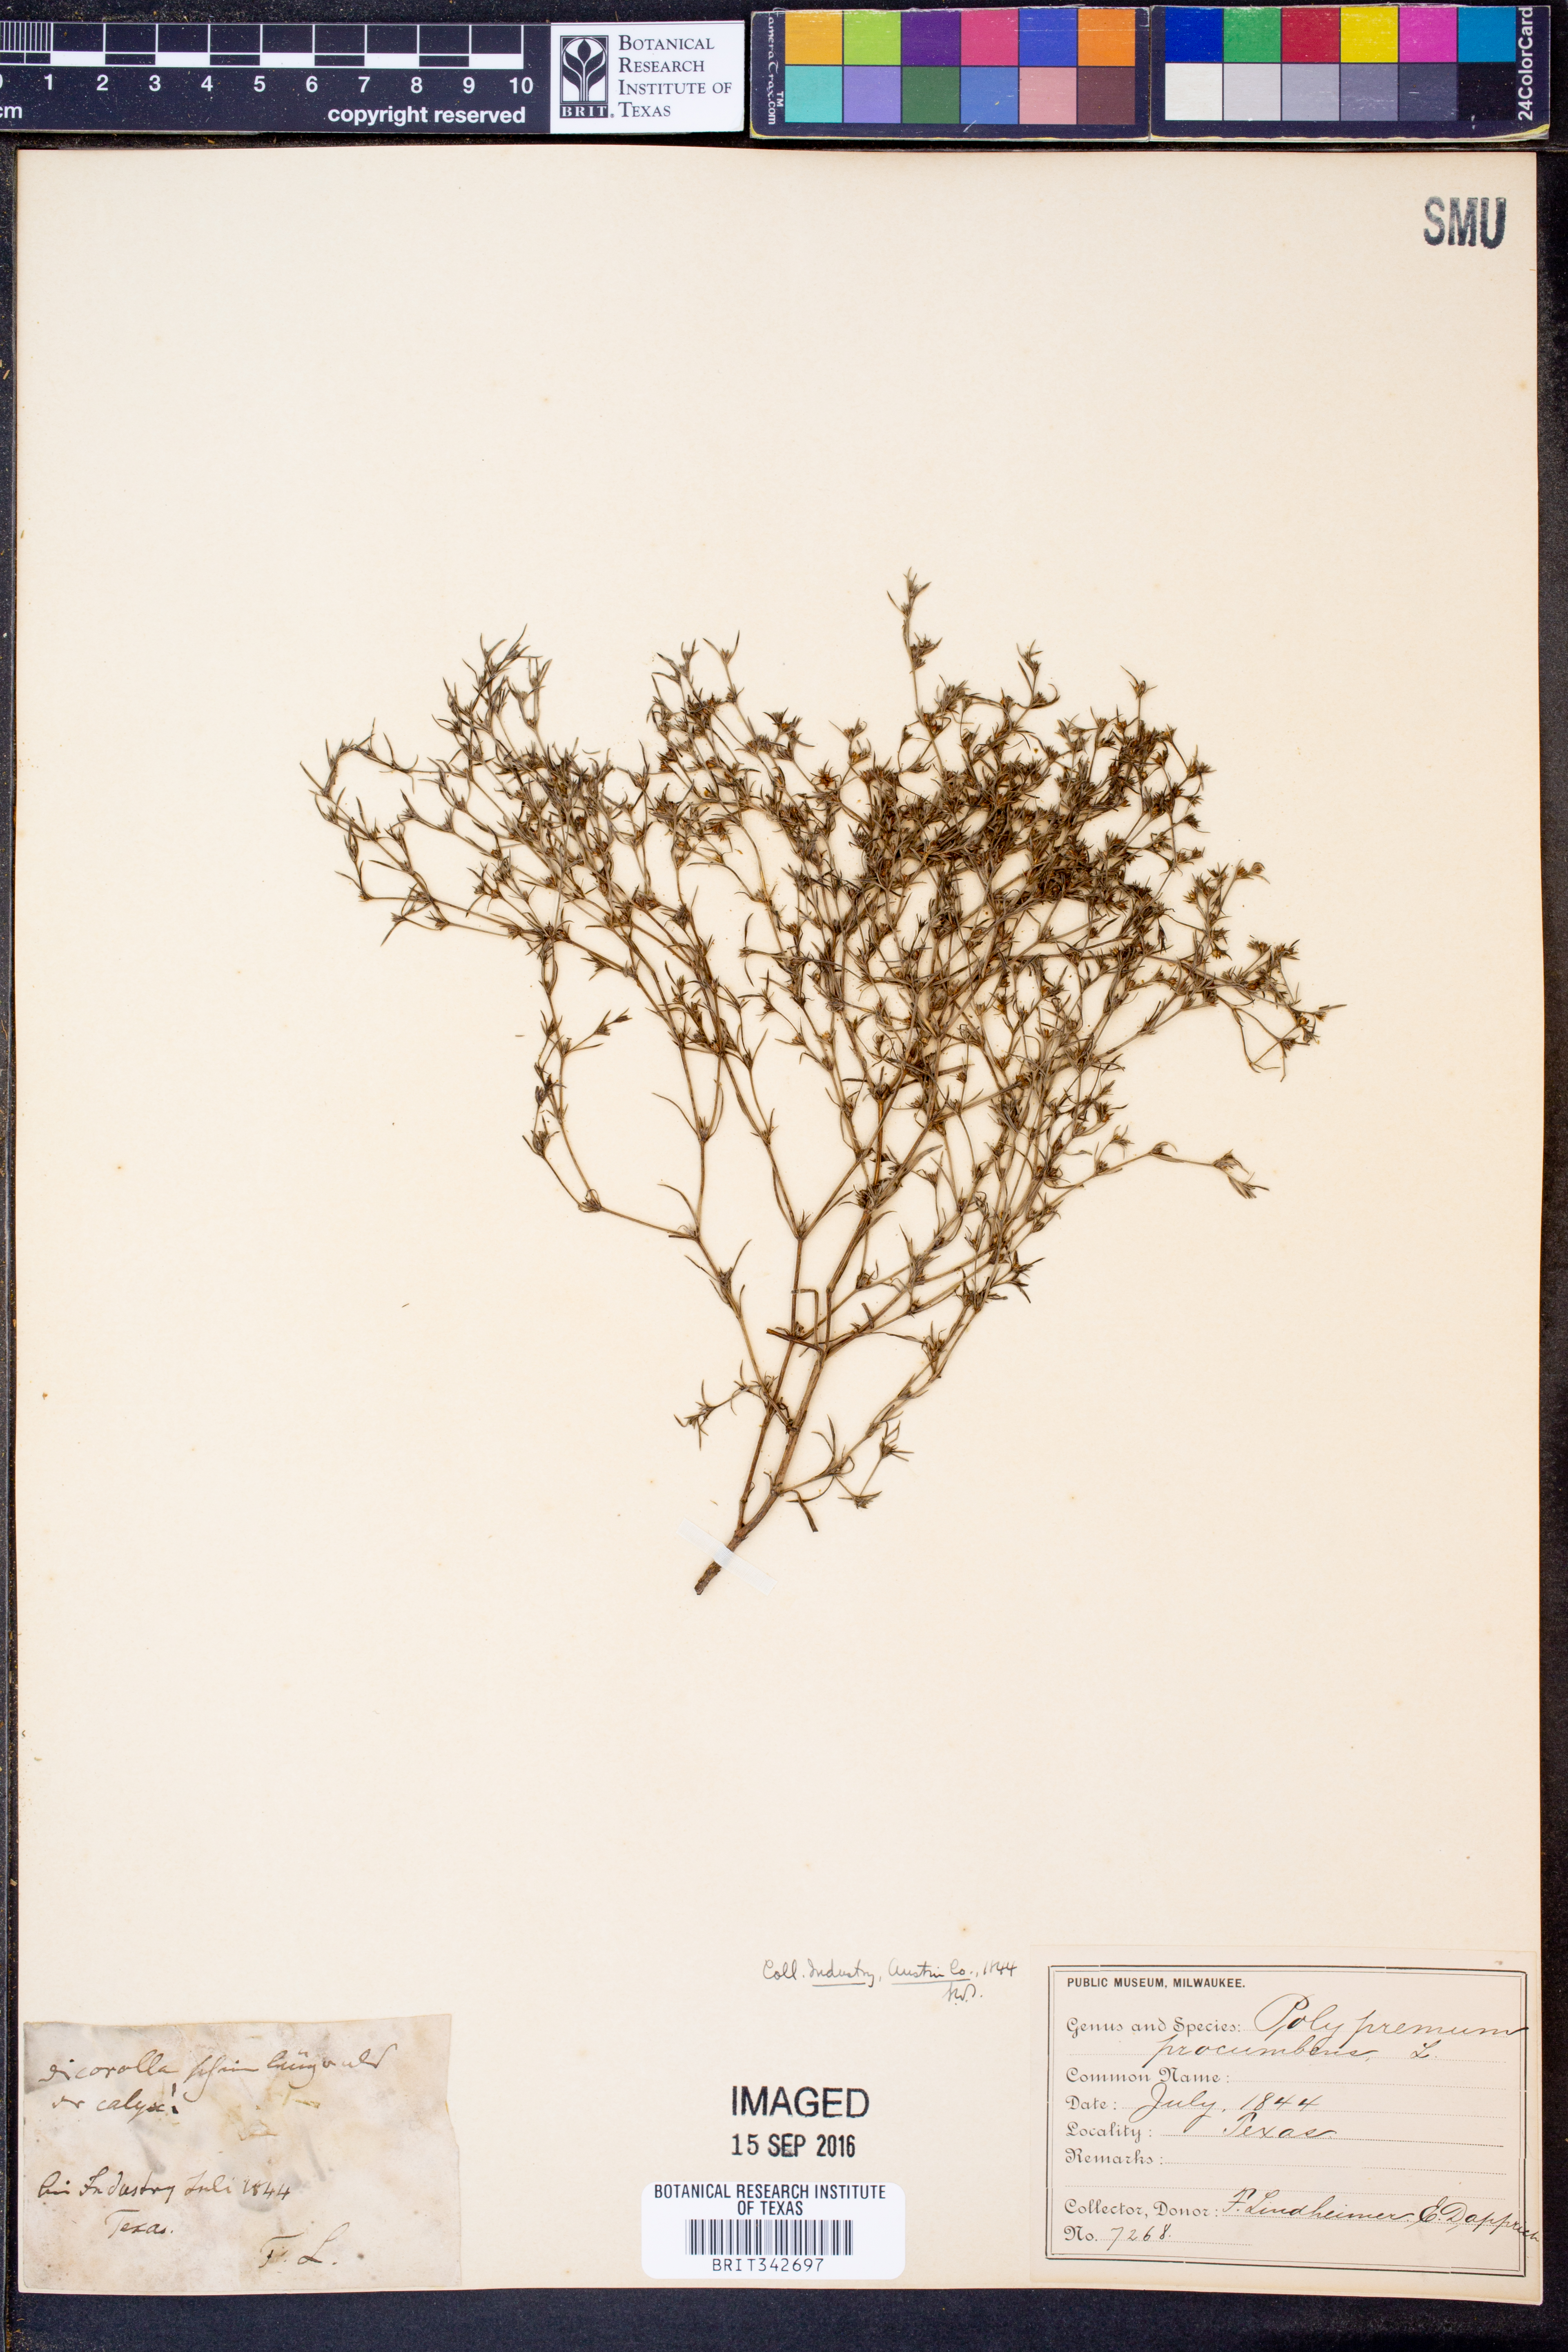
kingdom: Plantae
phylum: Tracheophyta
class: Magnoliopsida
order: Lamiales
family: Tetrachondraceae
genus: Polypremum
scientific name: Polypremum procumbens
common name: Juniper-leaf
